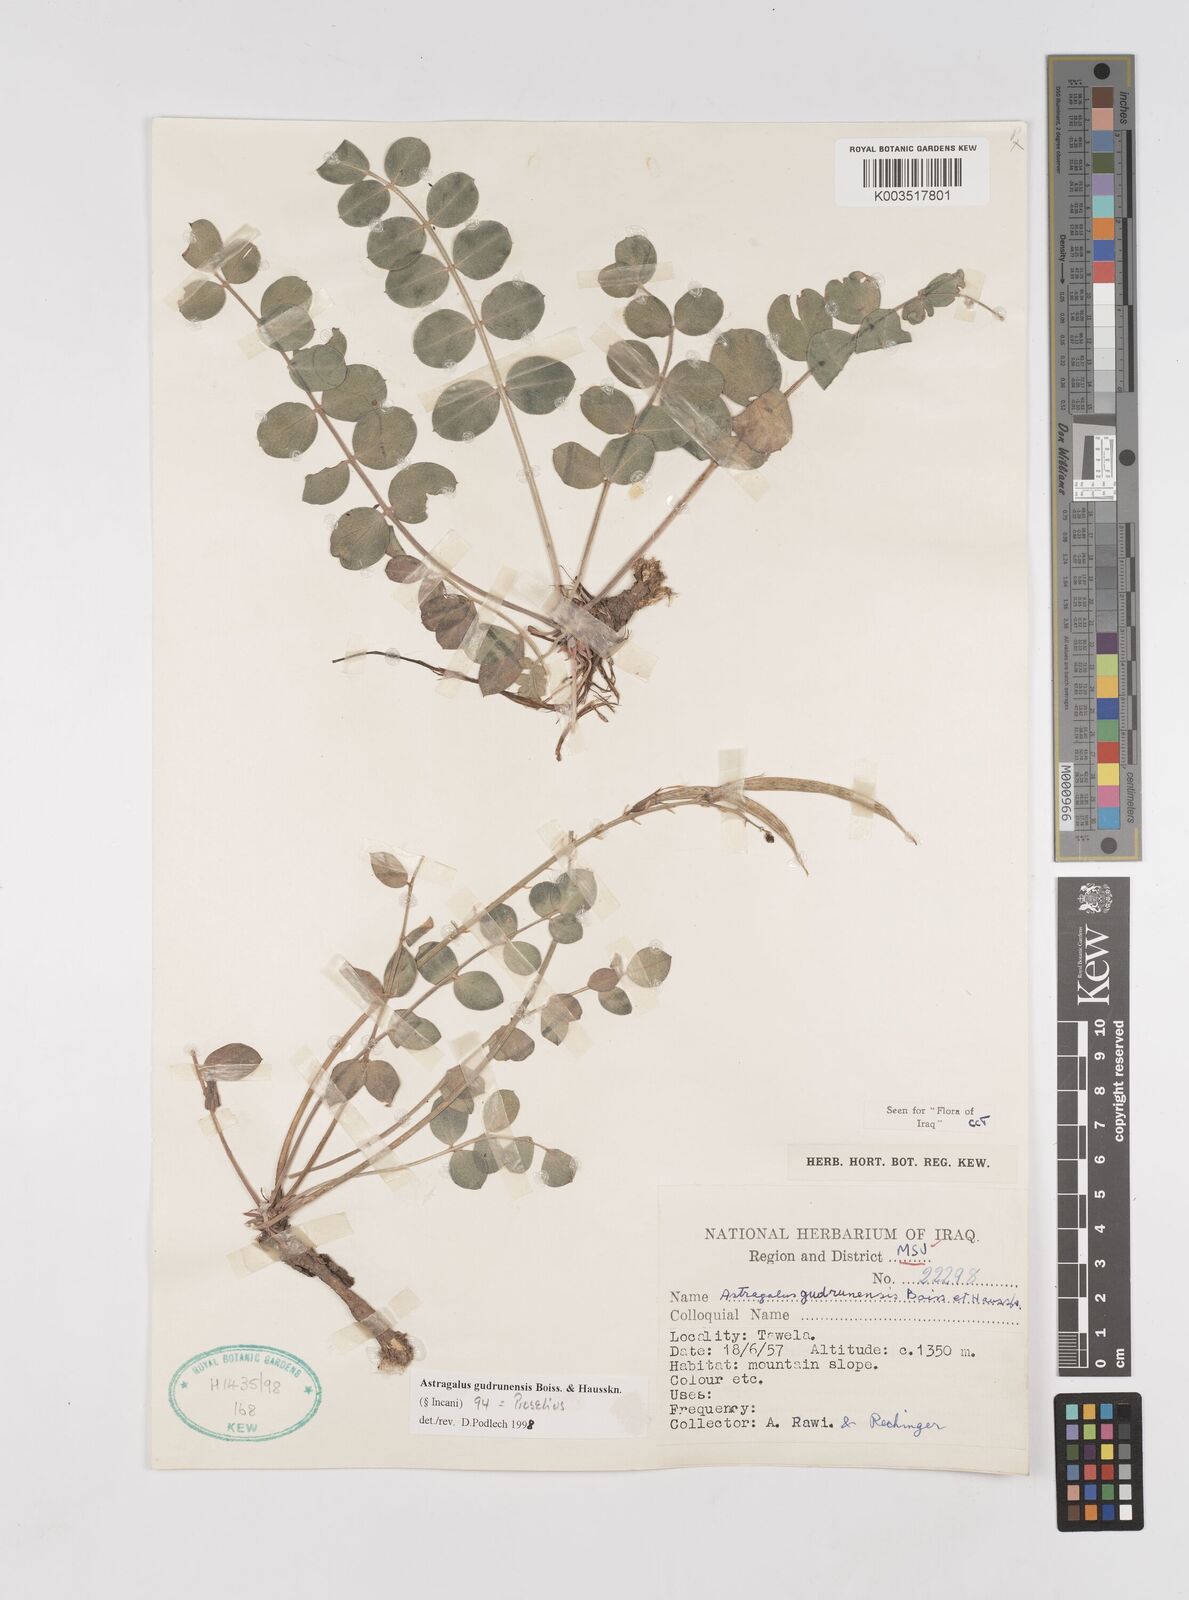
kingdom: Plantae
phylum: Tracheophyta
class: Magnoliopsida
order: Fabales
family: Fabaceae
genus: Astragalus
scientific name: Astragalus gudrunensis
